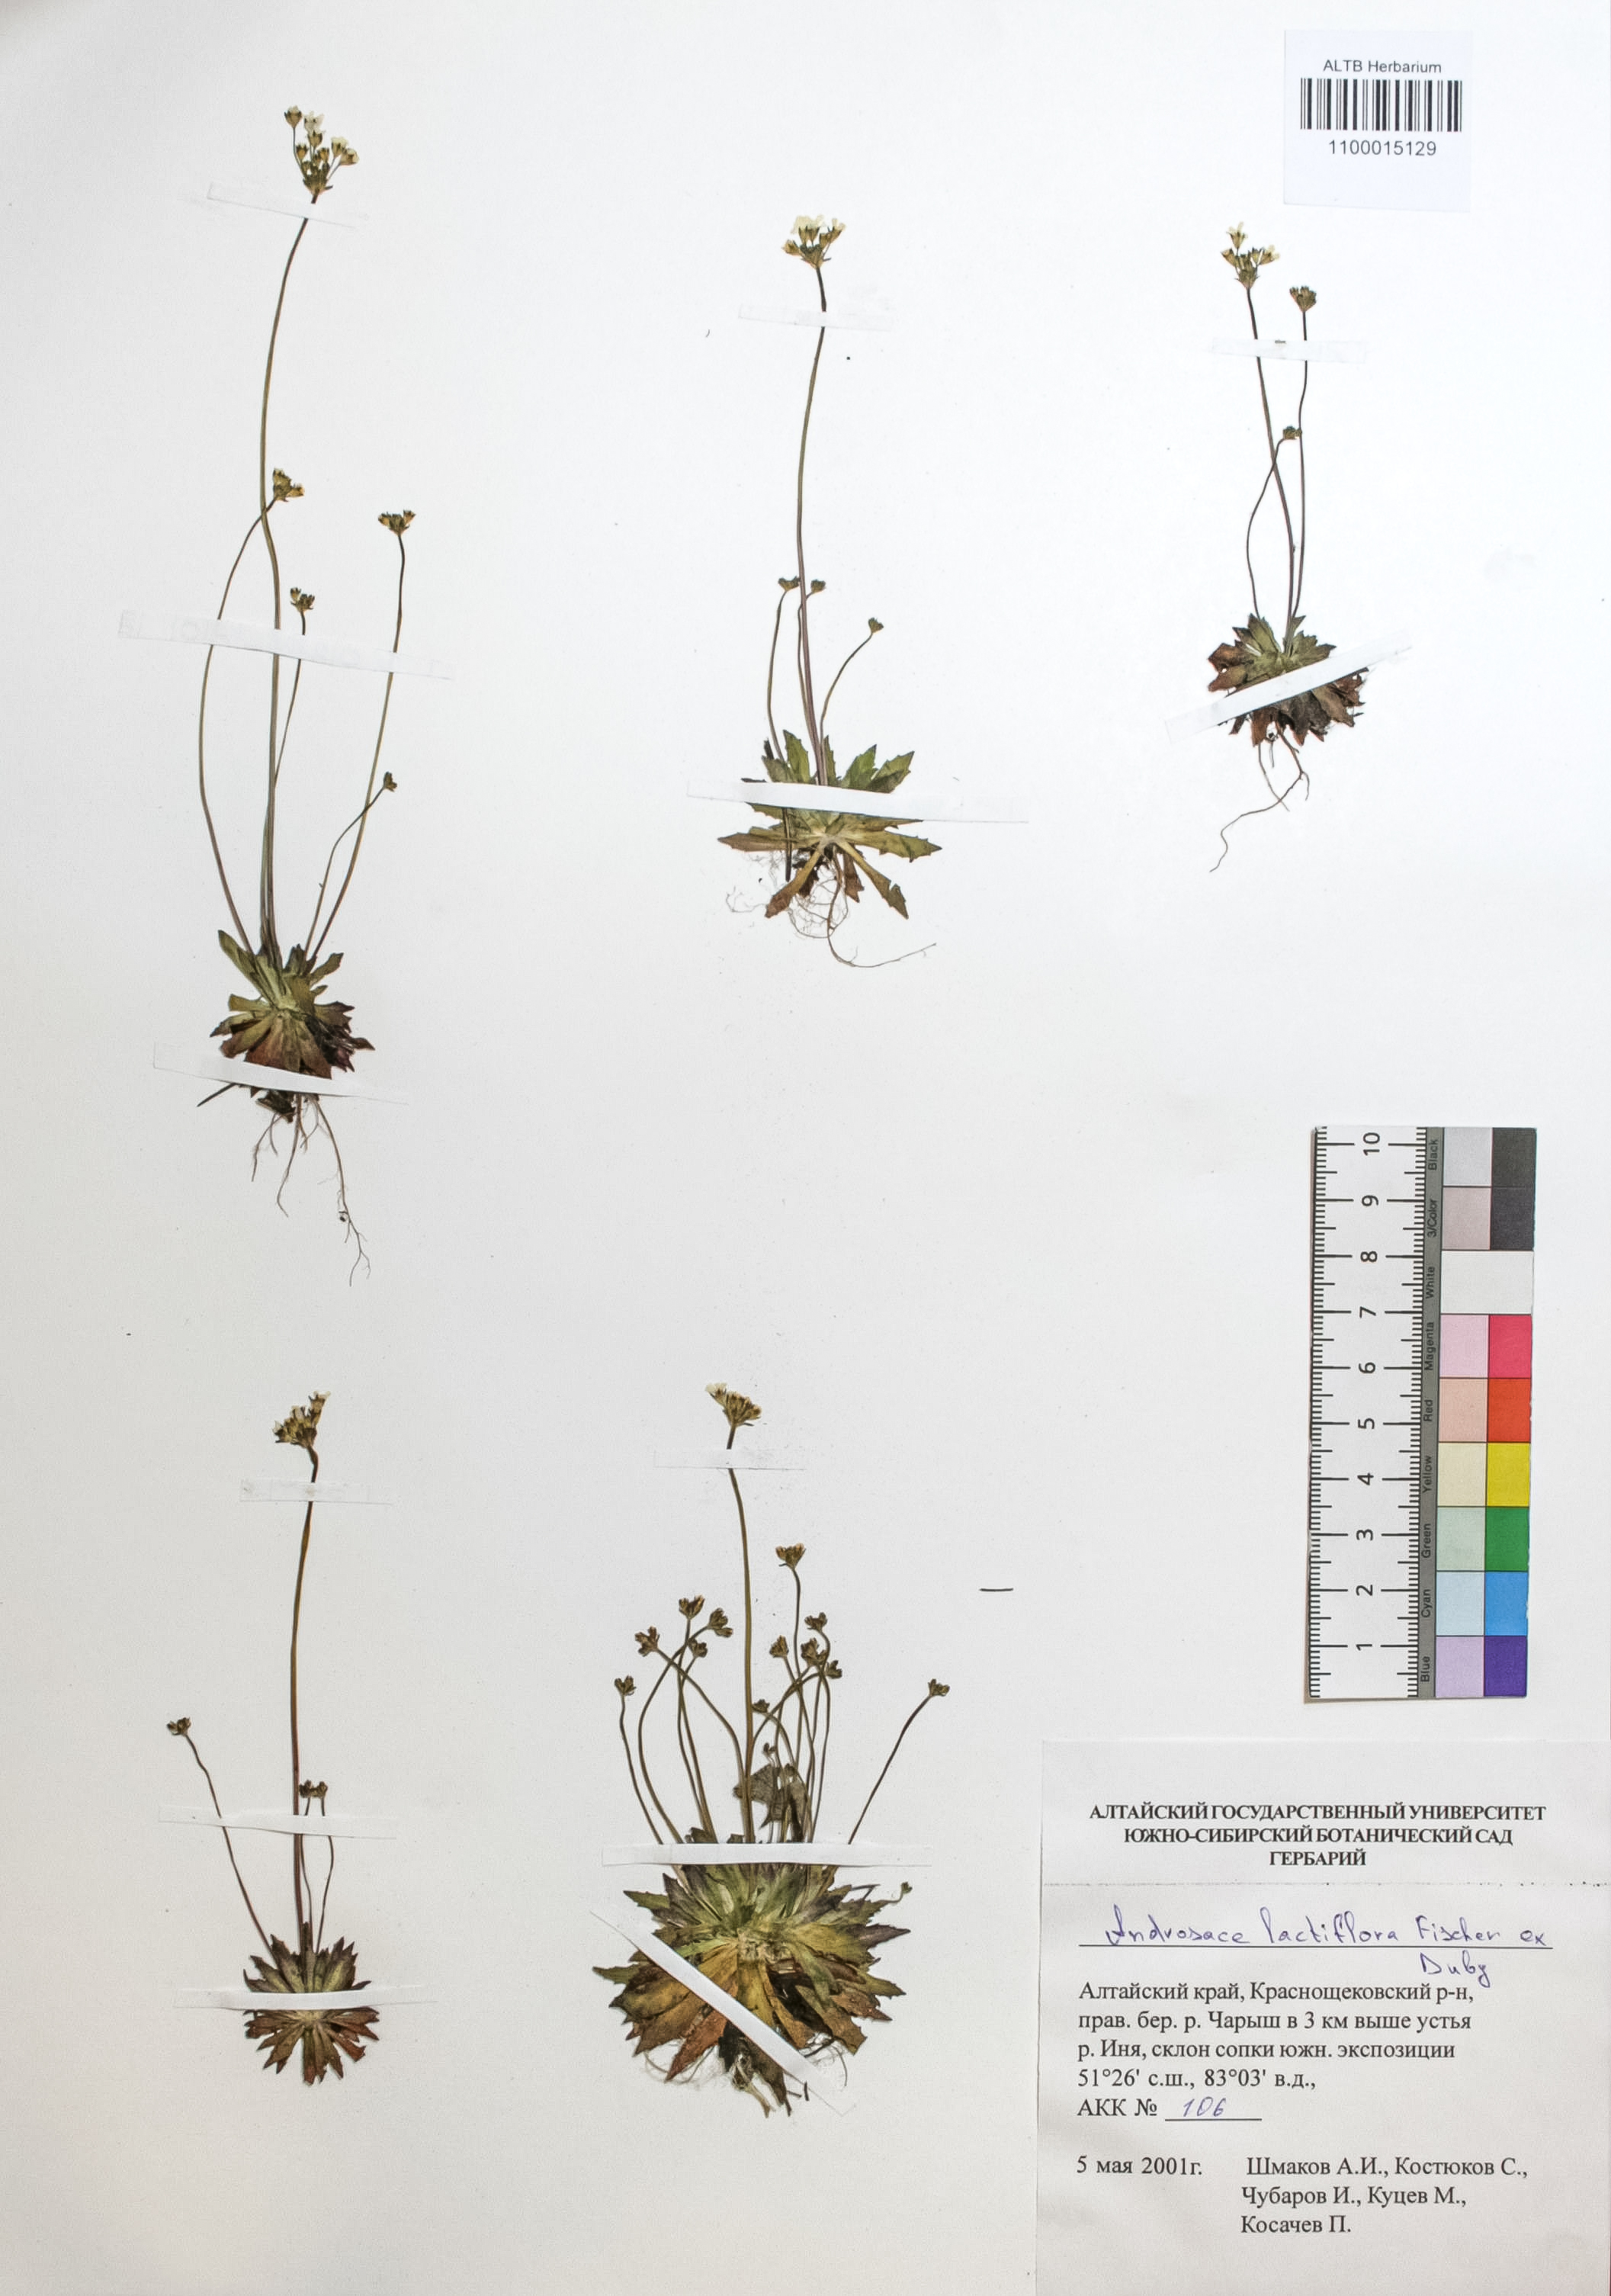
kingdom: Plantae
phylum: Tracheophyta
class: Magnoliopsida
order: Ericales
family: Primulaceae
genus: Androsace
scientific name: Androsace lactiflora
